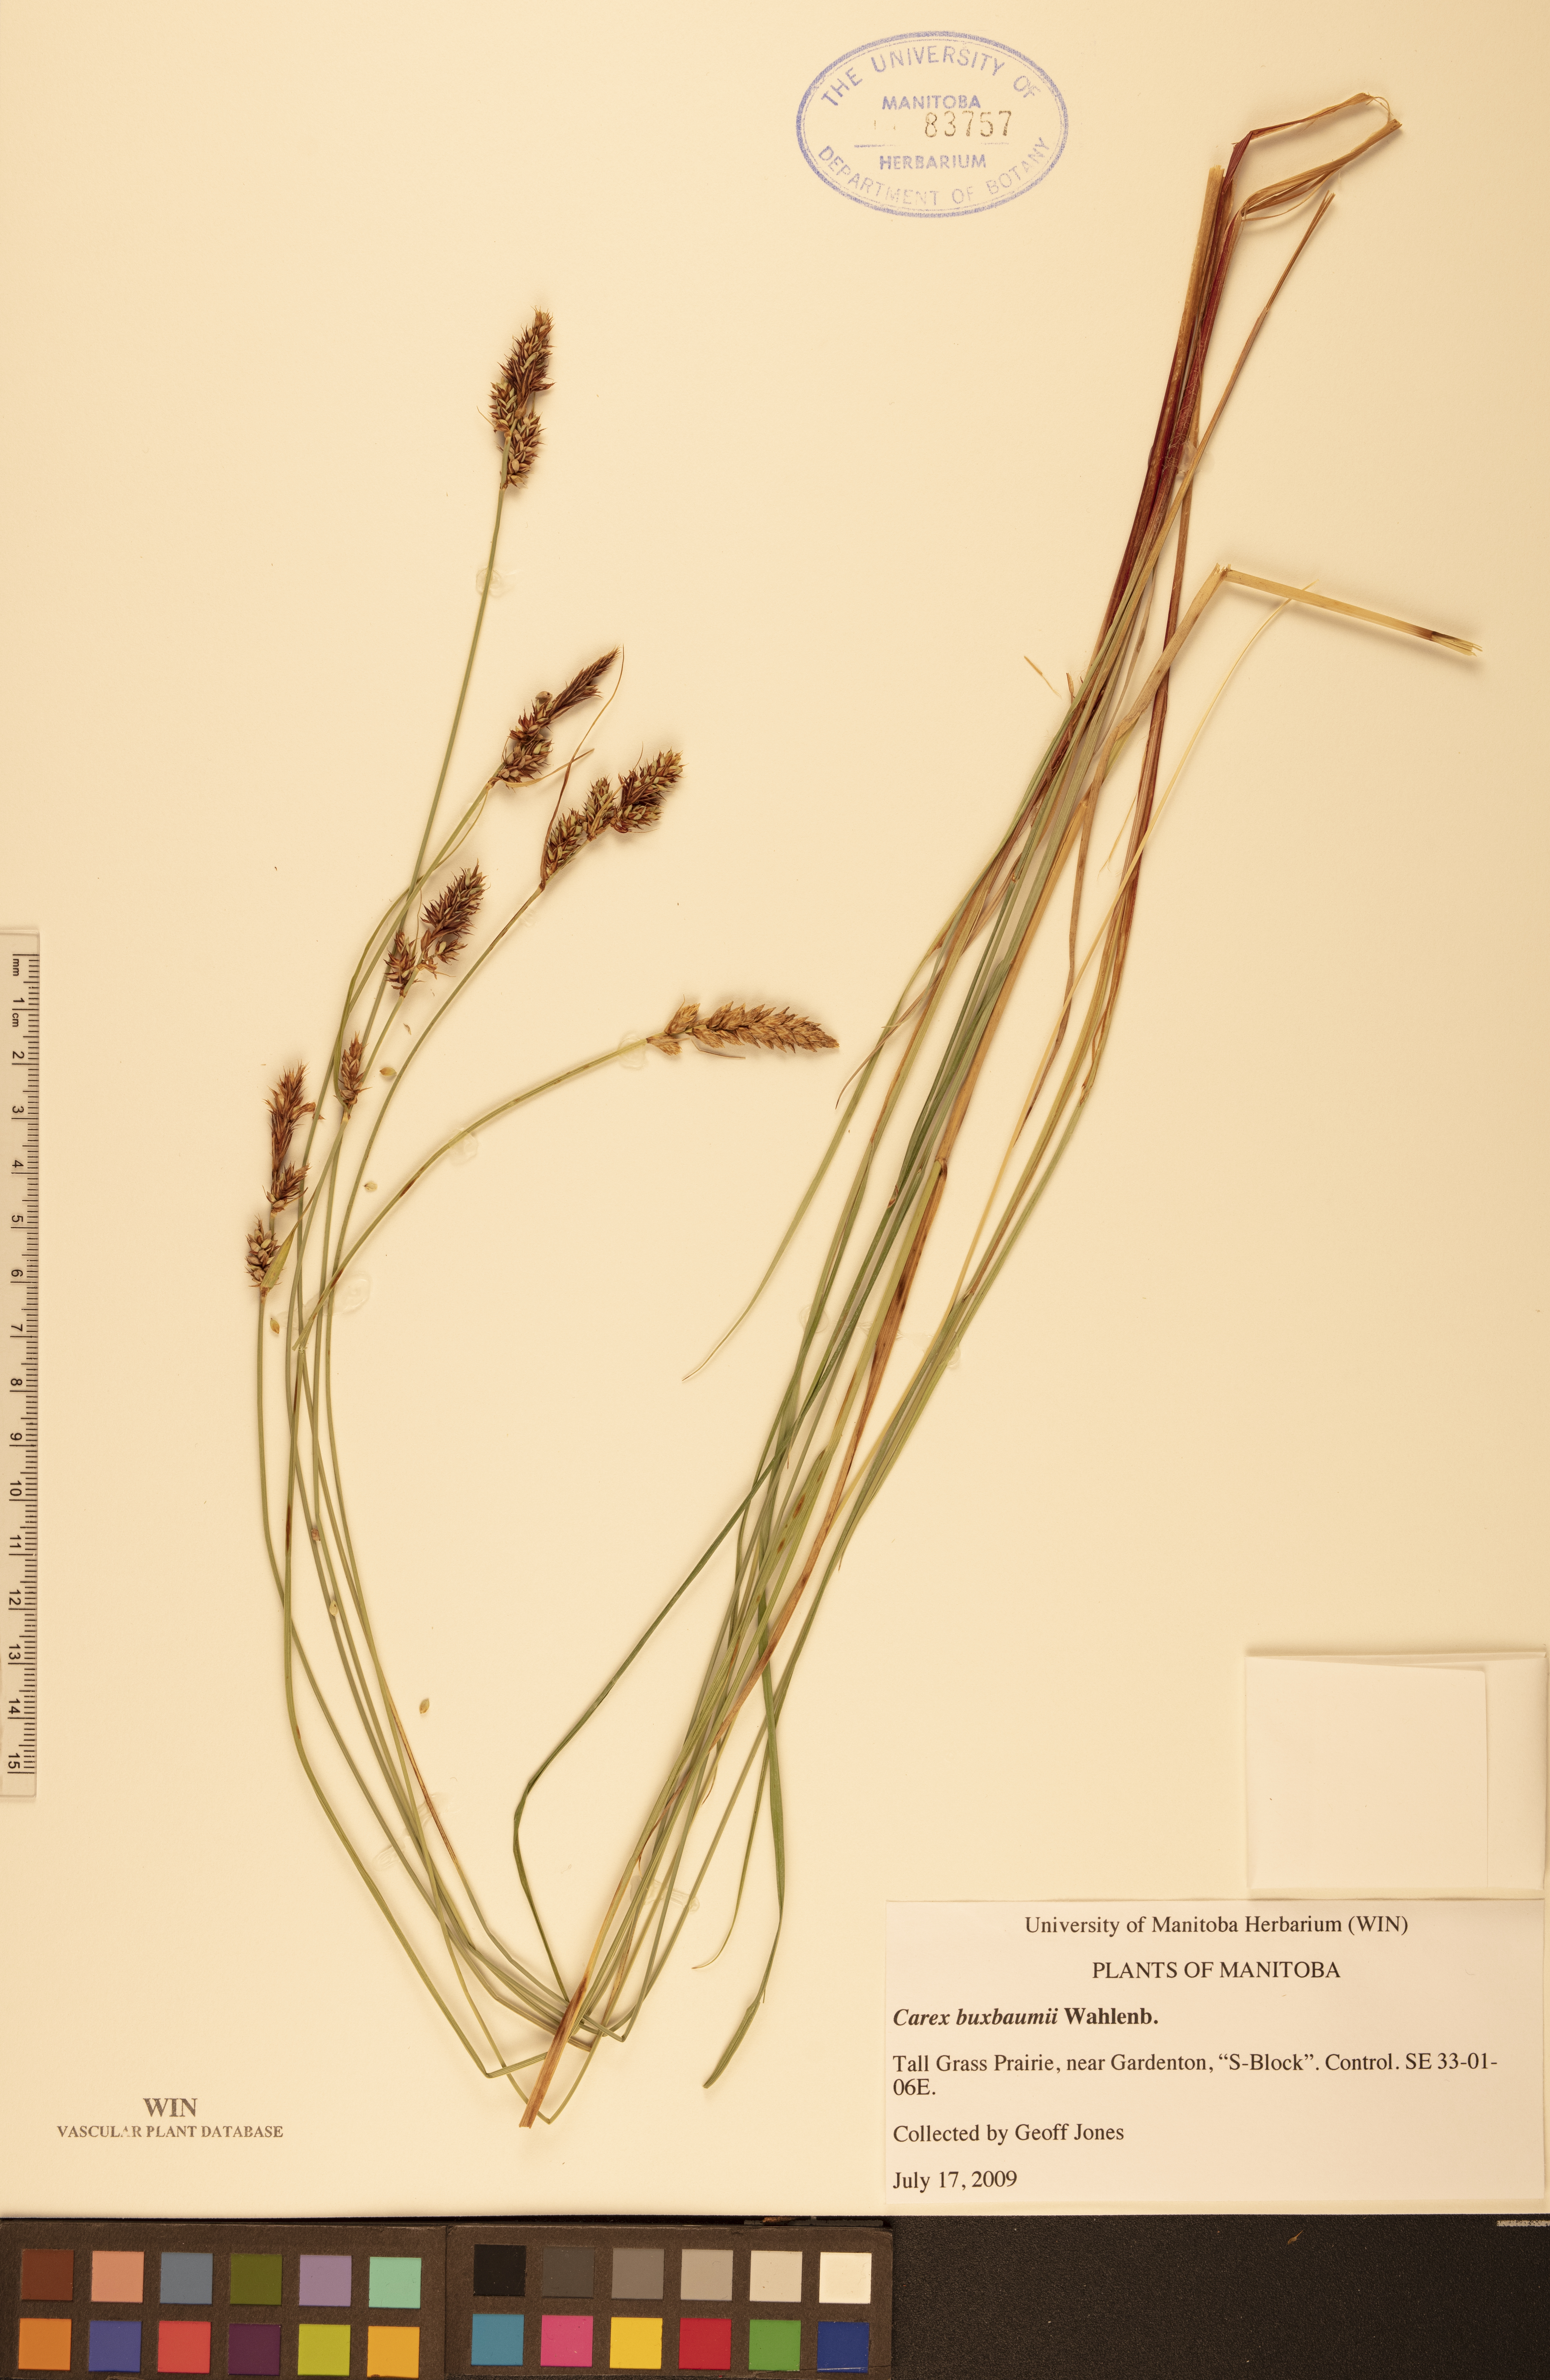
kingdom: Plantae
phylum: Tracheophyta
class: Liliopsida
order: Poales
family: Cyperaceae
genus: Carex
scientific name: Carex buxbaumii
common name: Club sedge
